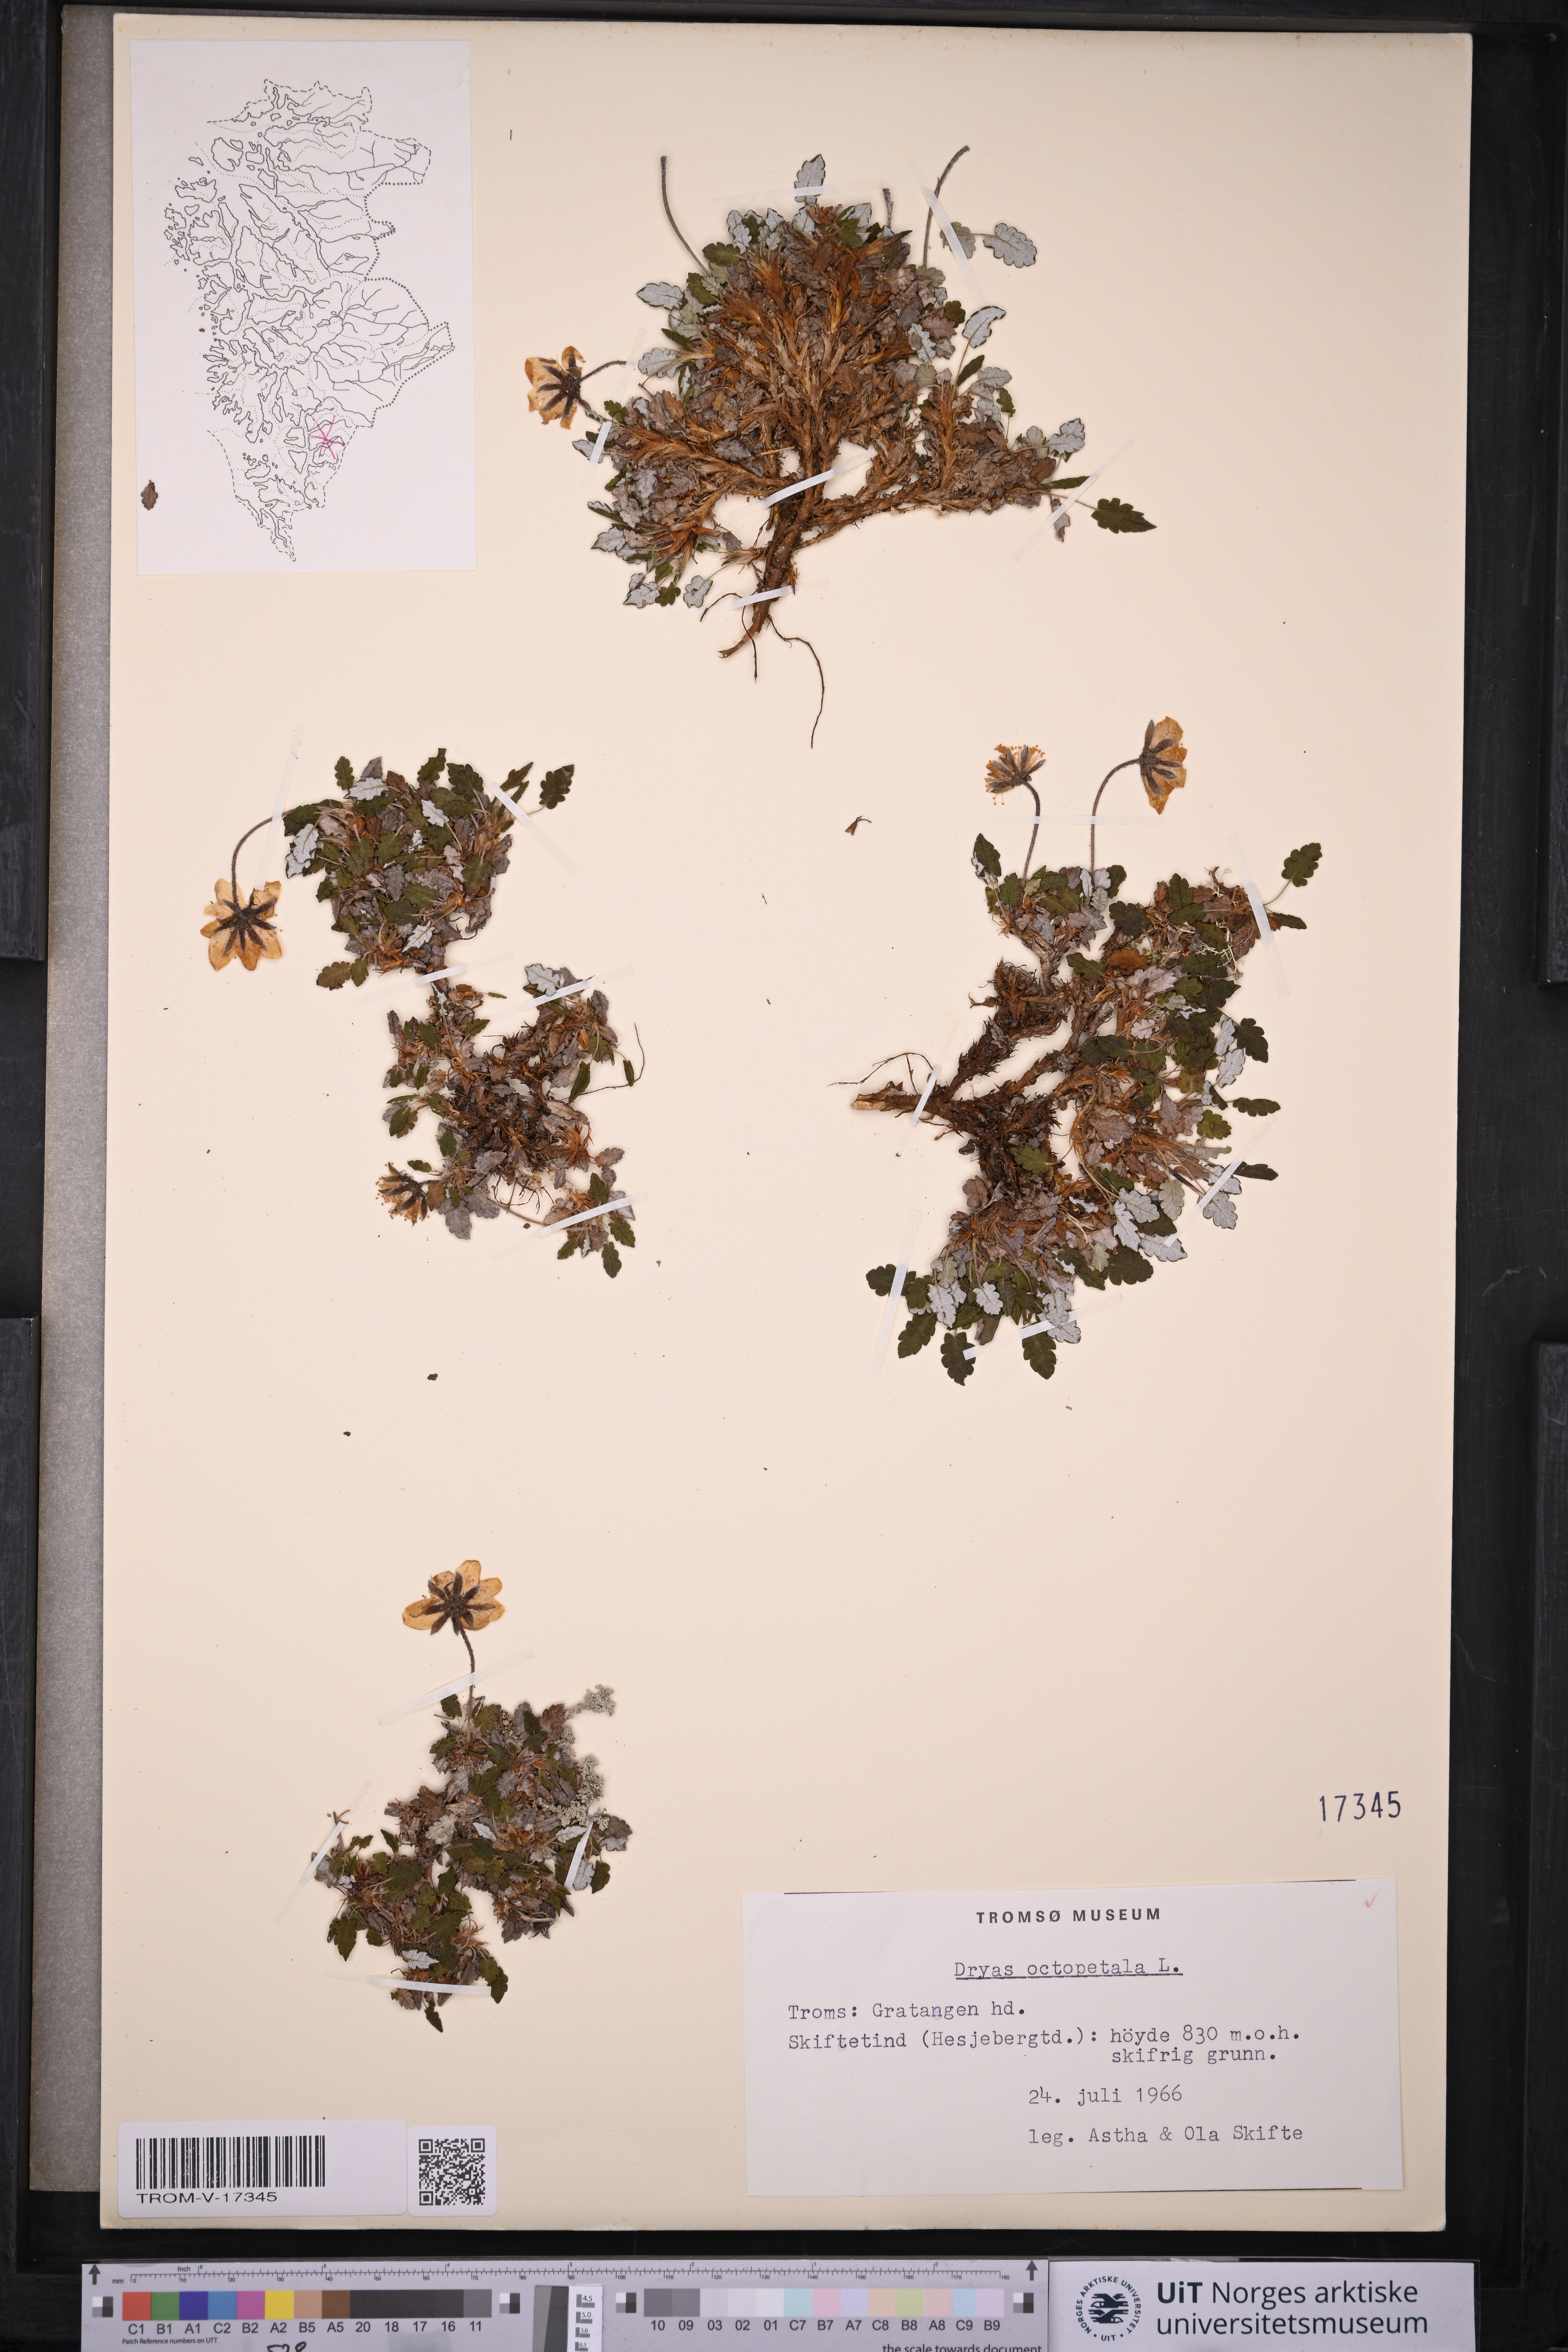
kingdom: Plantae
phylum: Tracheophyta
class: Magnoliopsida
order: Rosales
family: Rosaceae
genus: Dryas
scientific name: Dryas octopetala
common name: Eight-petal mountain-avens
